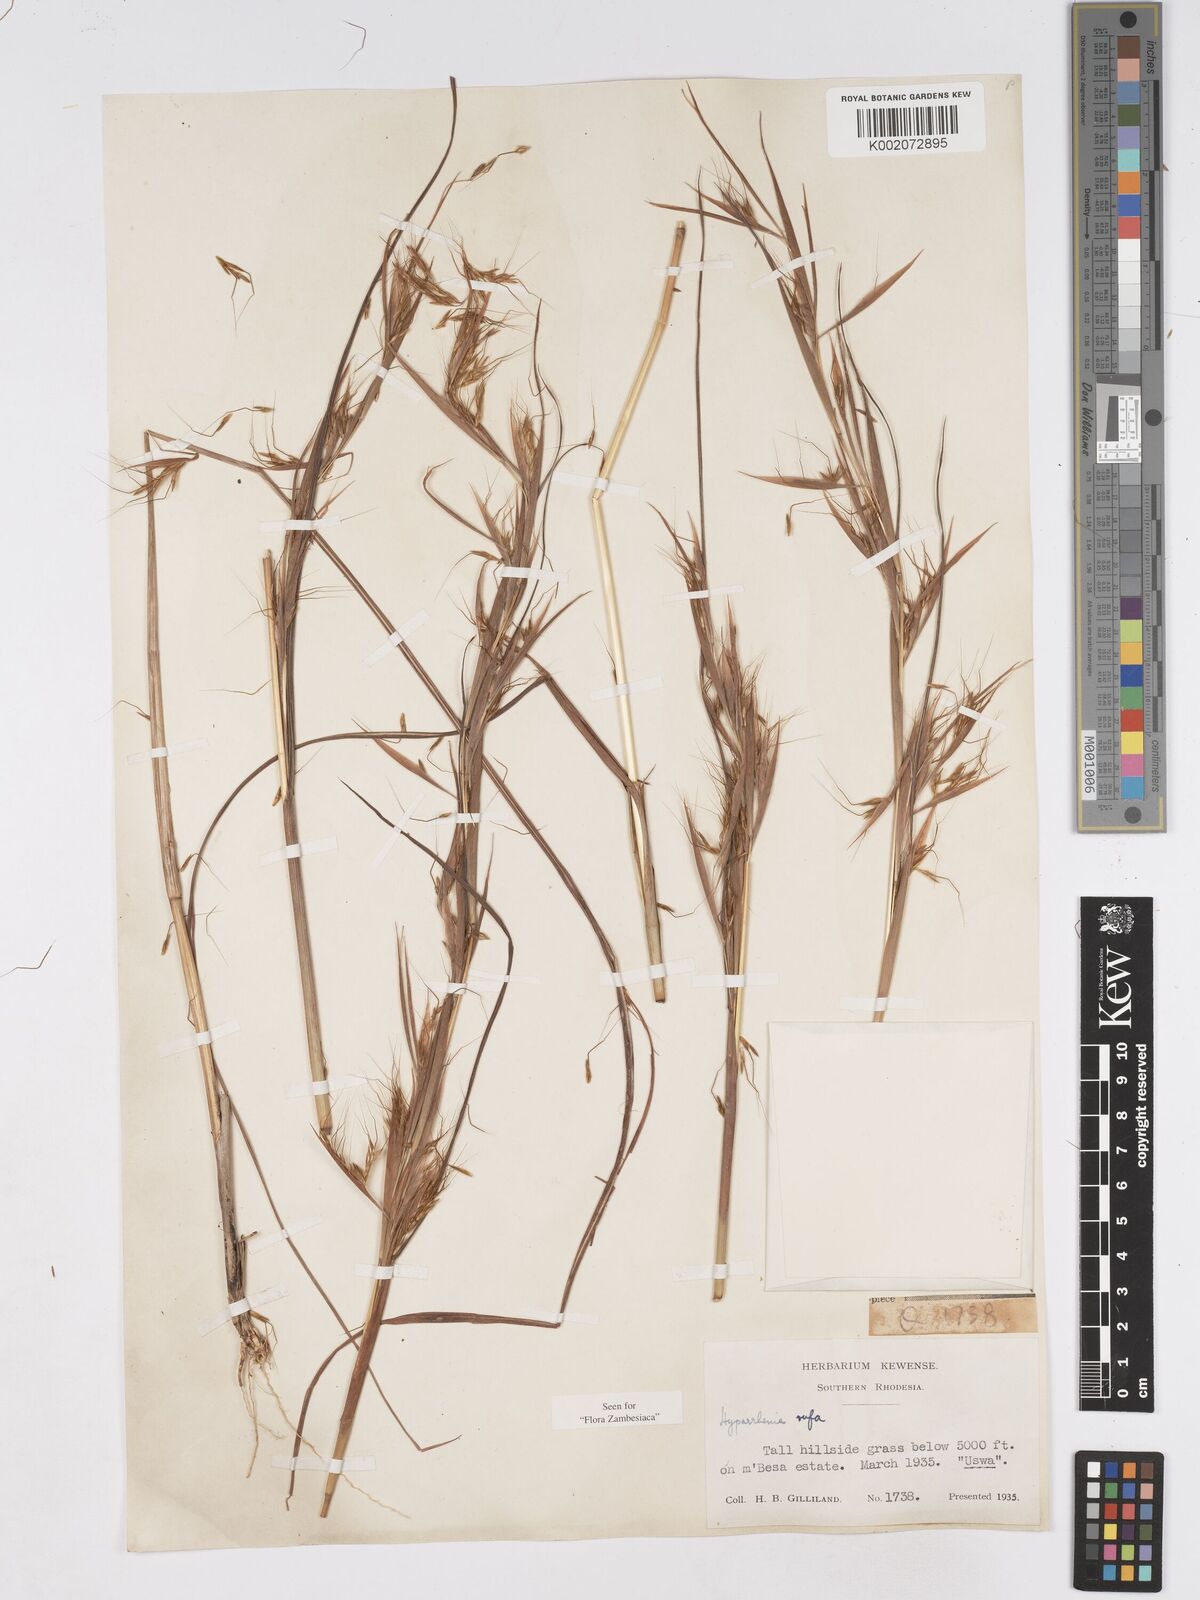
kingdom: Plantae
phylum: Tracheophyta
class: Liliopsida
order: Poales
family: Poaceae
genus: Hyparrhenia
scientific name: Hyparrhenia rufa
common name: Jaraguagrass
